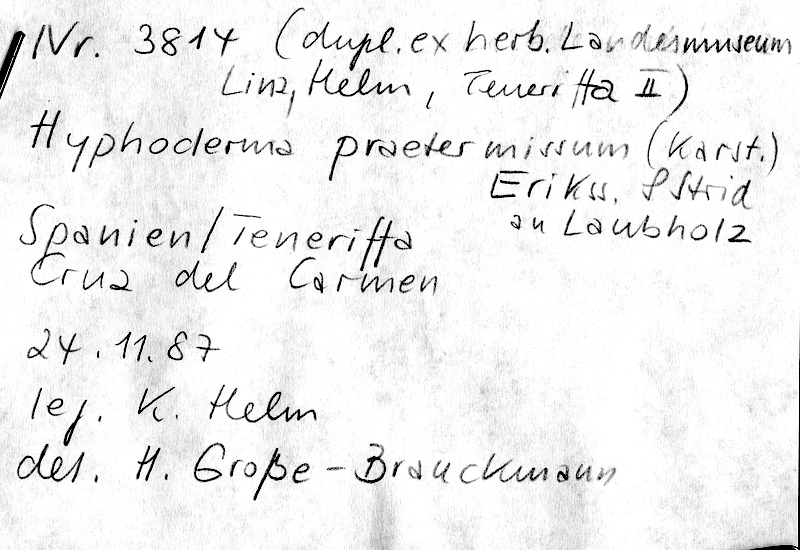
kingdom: Fungi
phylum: Basidiomycota
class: Agaricomycetes
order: Hymenochaetales
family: Rickenellaceae
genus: Peniophorella
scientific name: Peniophorella praetermissa
